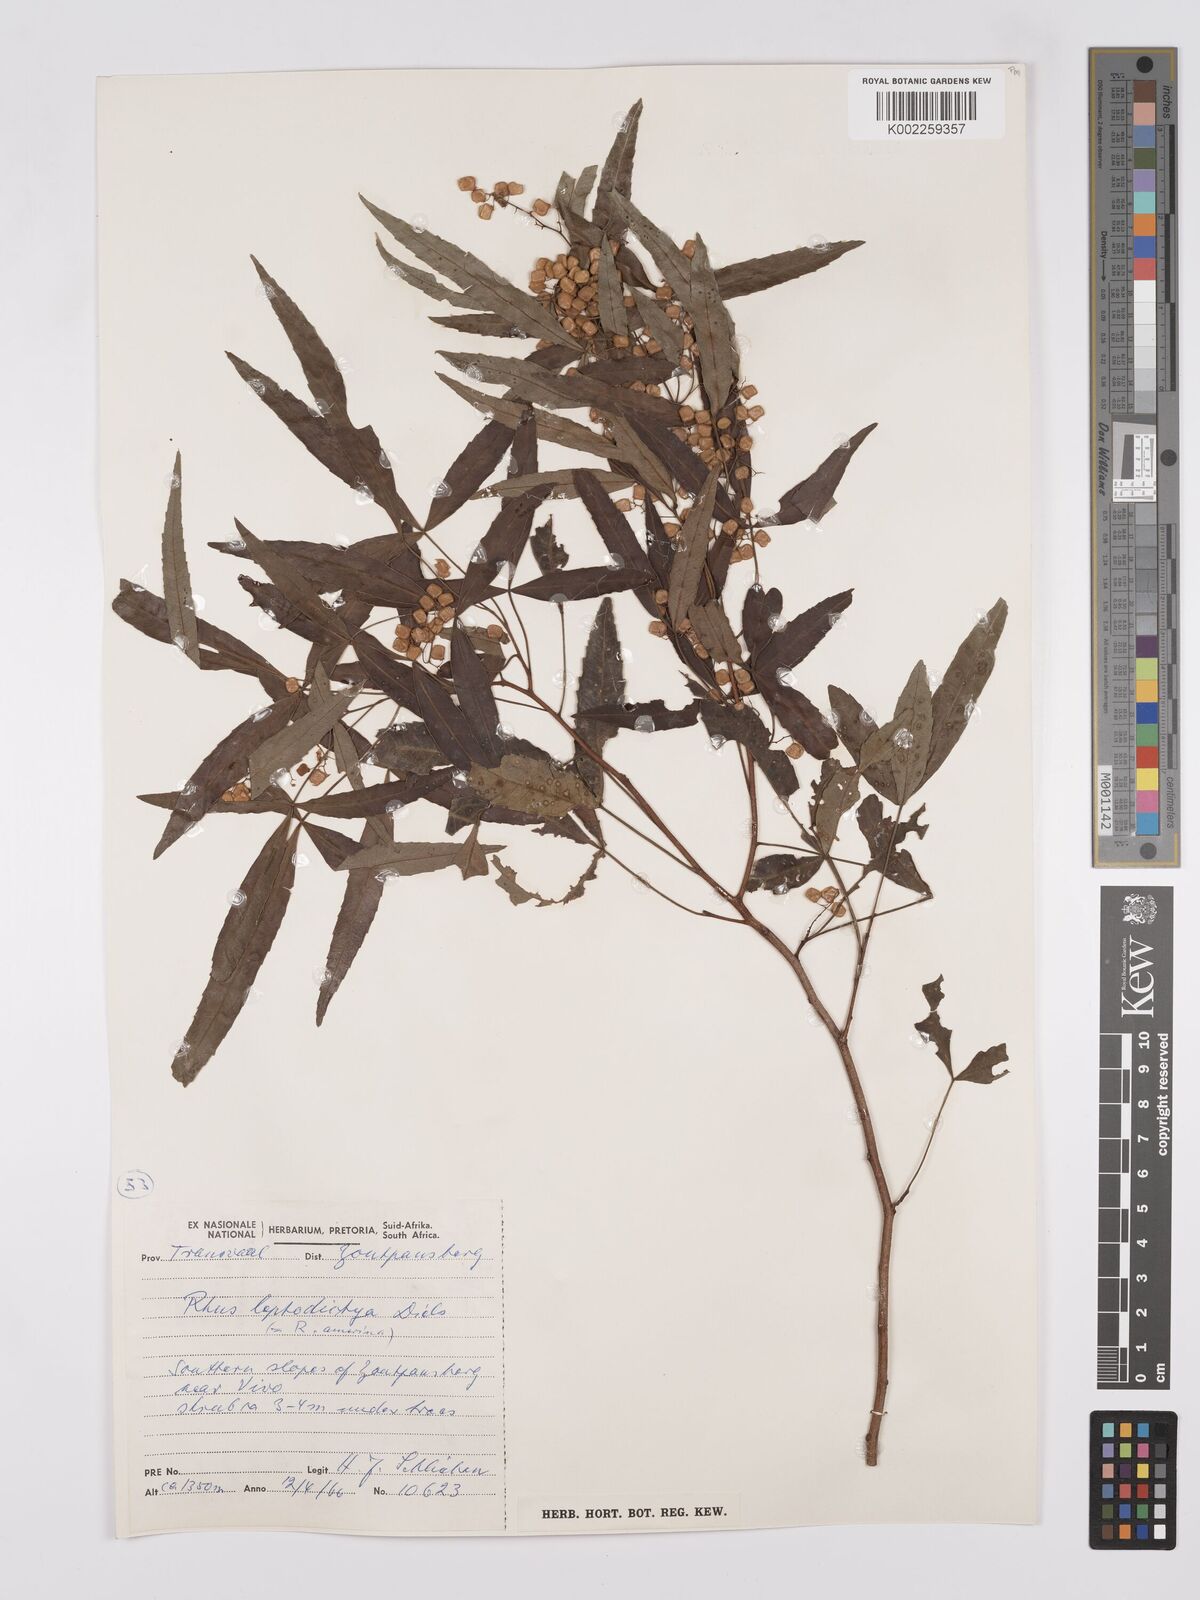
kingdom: Plantae
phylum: Tracheophyta
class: Magnoliopsida
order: Sapindales
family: Anacardiaceae
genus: Searsia
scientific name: Searsia leptodictya
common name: Mountain karee
